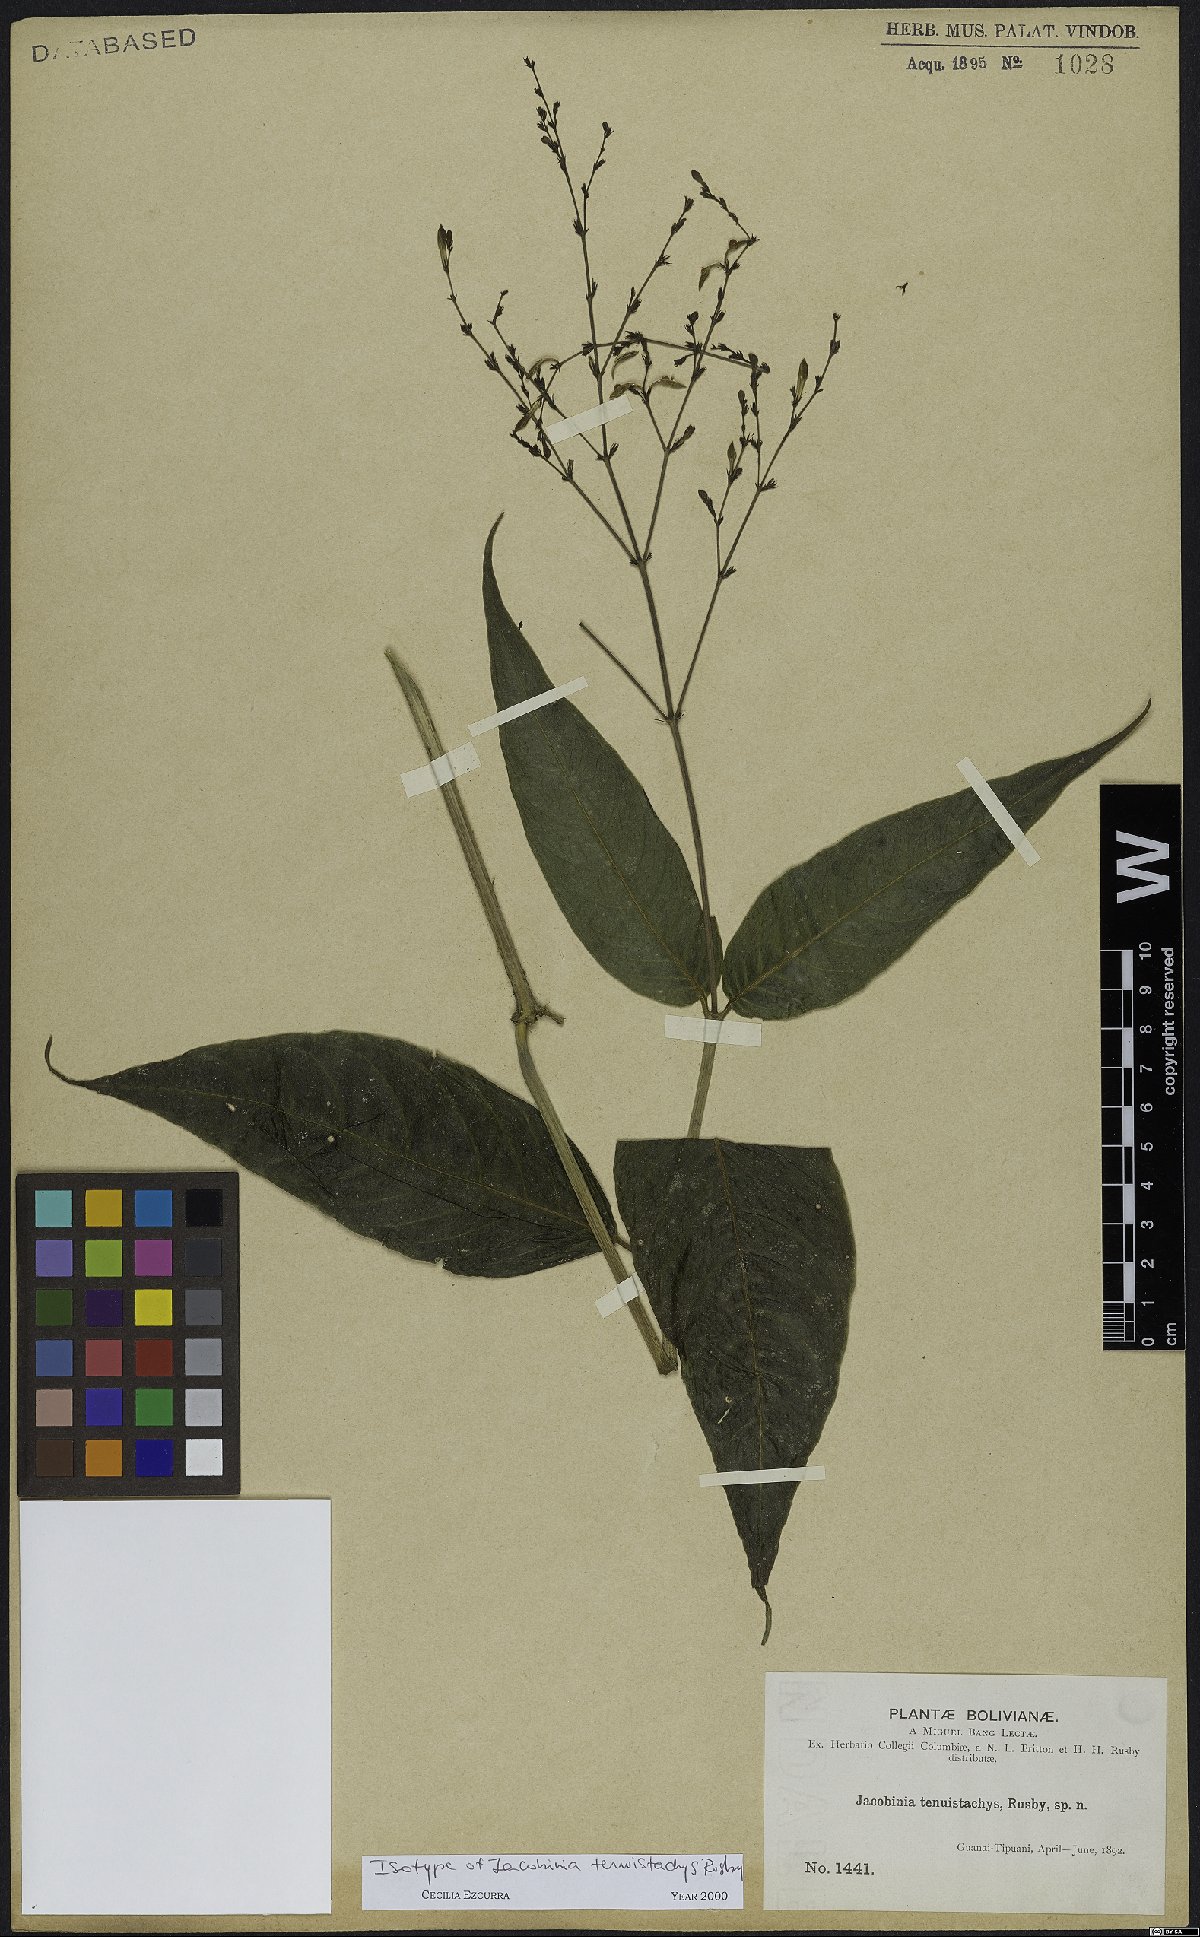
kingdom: Plantae
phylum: Tracheophyta
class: Magnoliopsida
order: Lamiales
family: Acanthaceae
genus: Justicia
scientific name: Justicia tenuistachys
